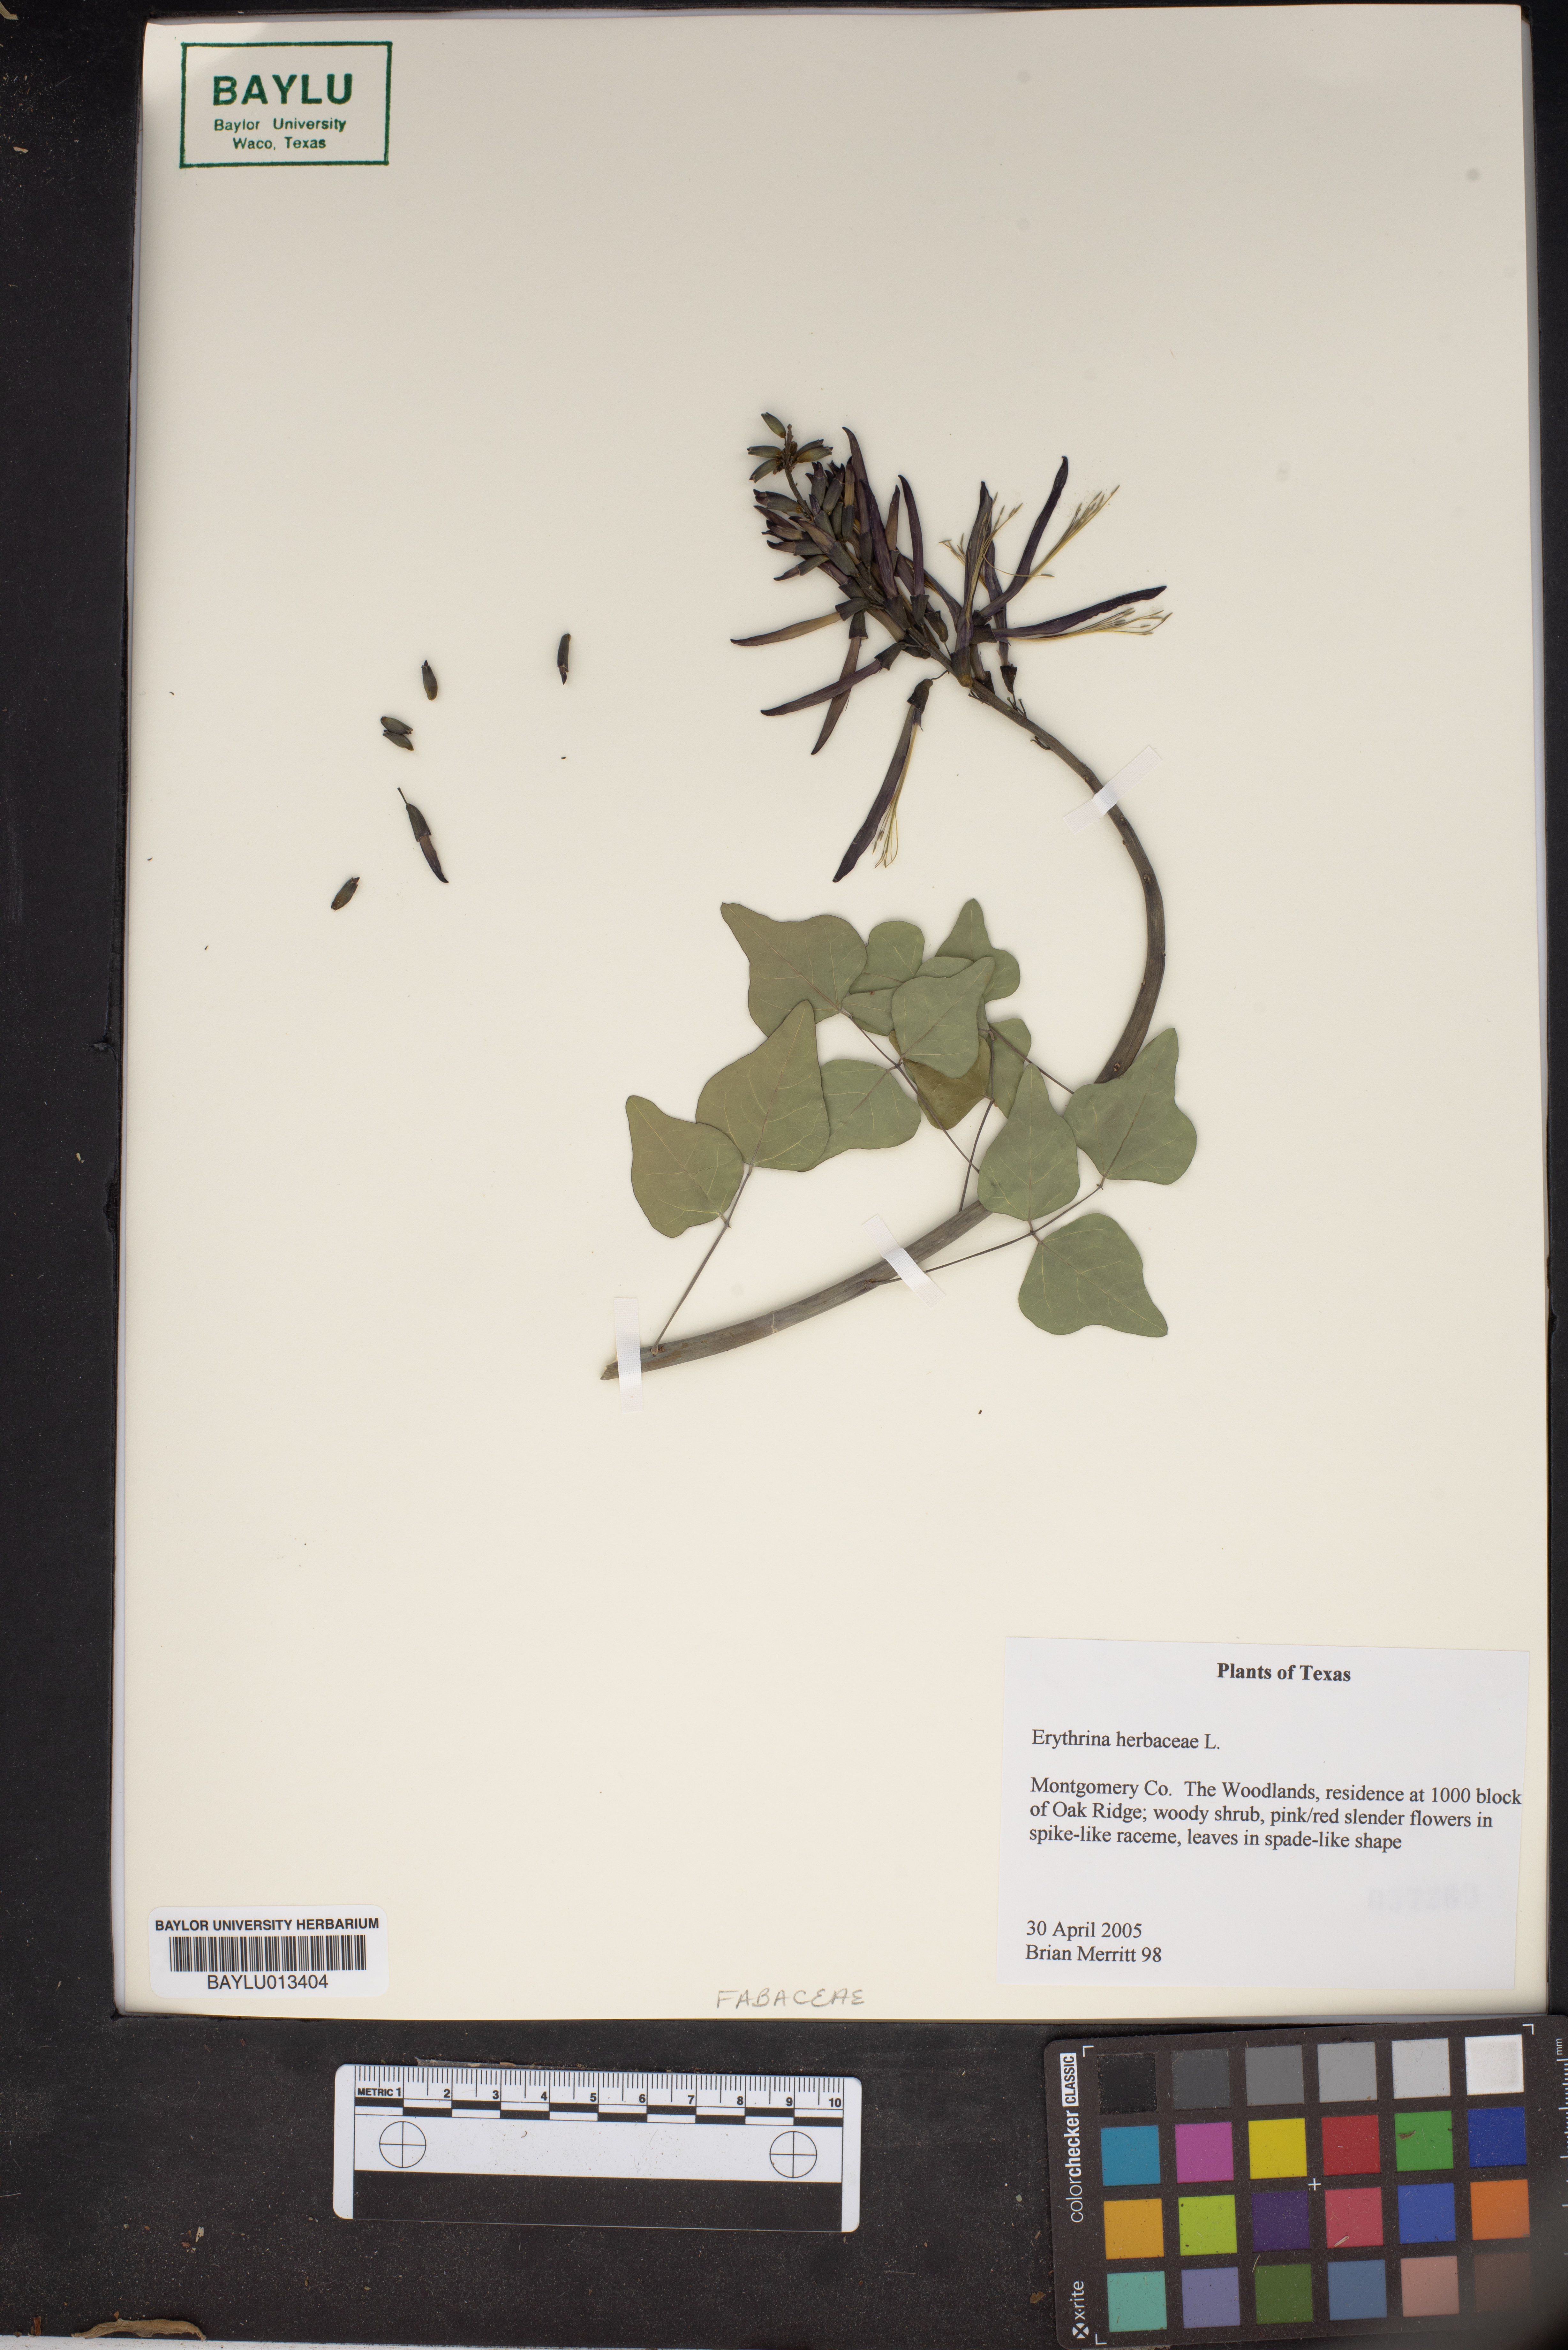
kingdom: Plantae
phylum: Tracheophyta
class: Magnoliopsida
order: Fabales
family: Fabaceae
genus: Erythrina
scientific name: Erythrina herbacea
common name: Coral-bean
